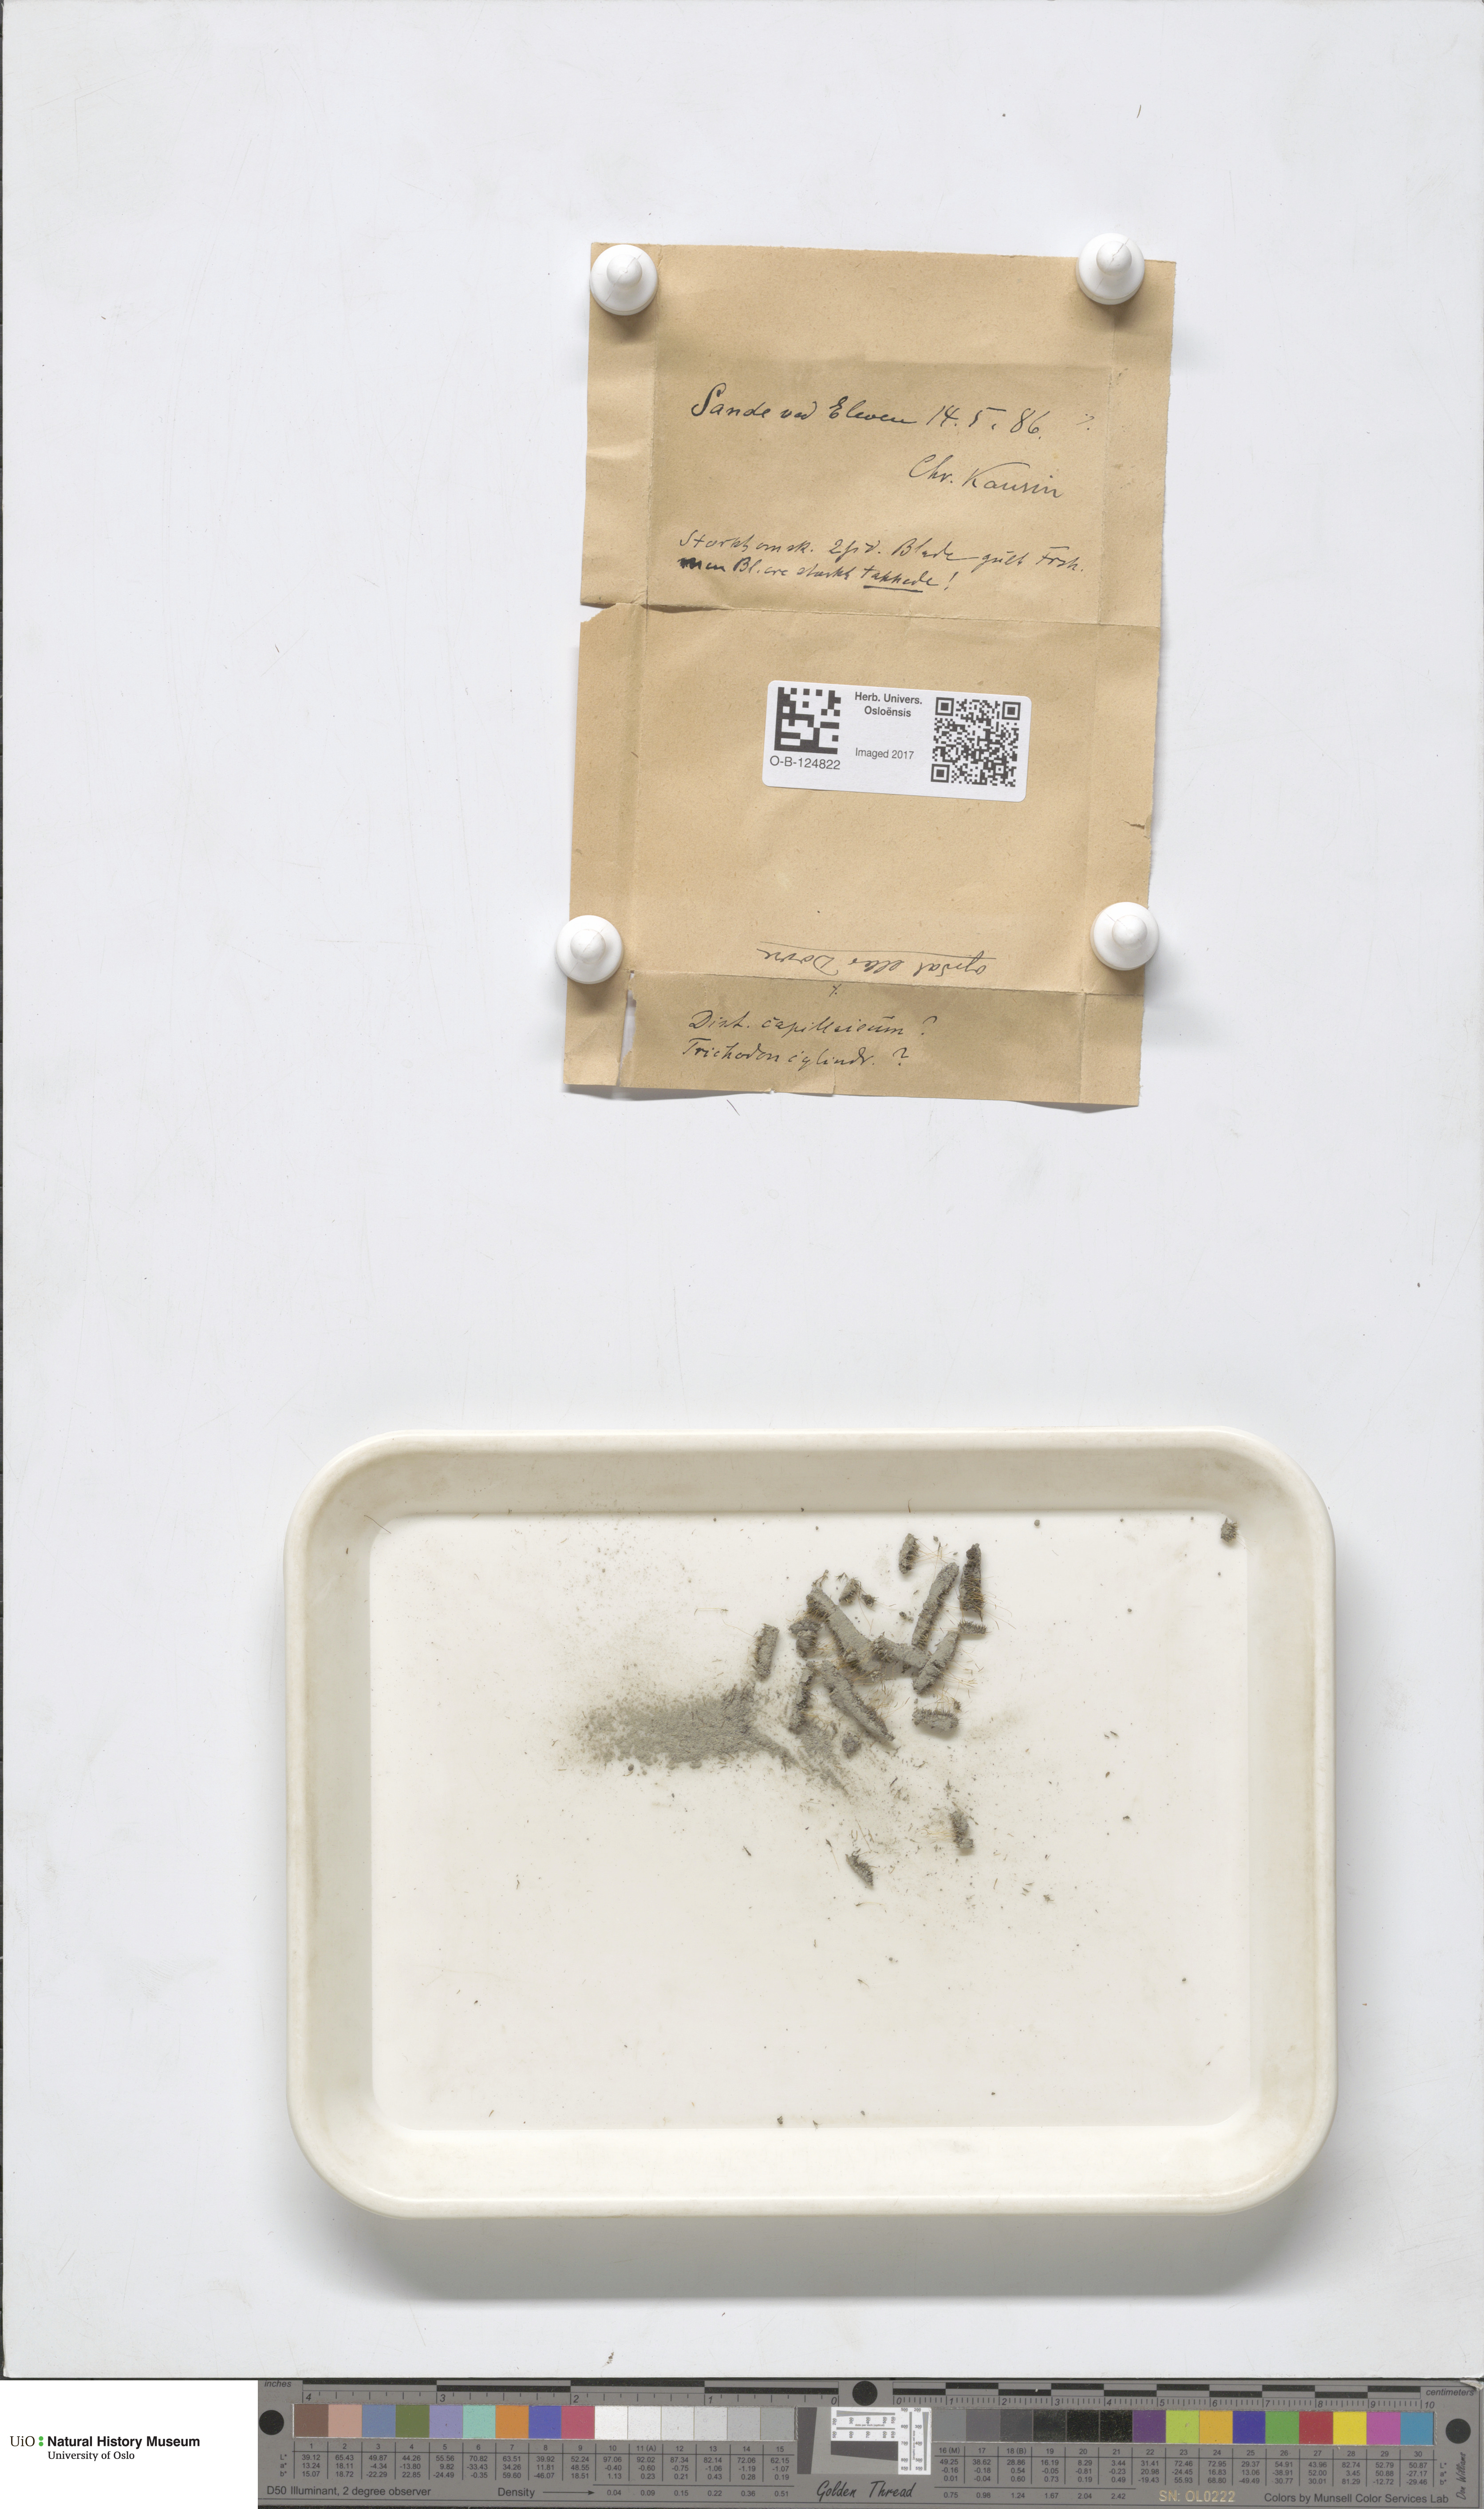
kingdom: Plantae
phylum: Bryophyta
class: Bryopsida
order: Dicranales
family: Dicranaceae
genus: Dicranum
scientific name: Dicranum elongatum
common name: Long-forked broom moss
